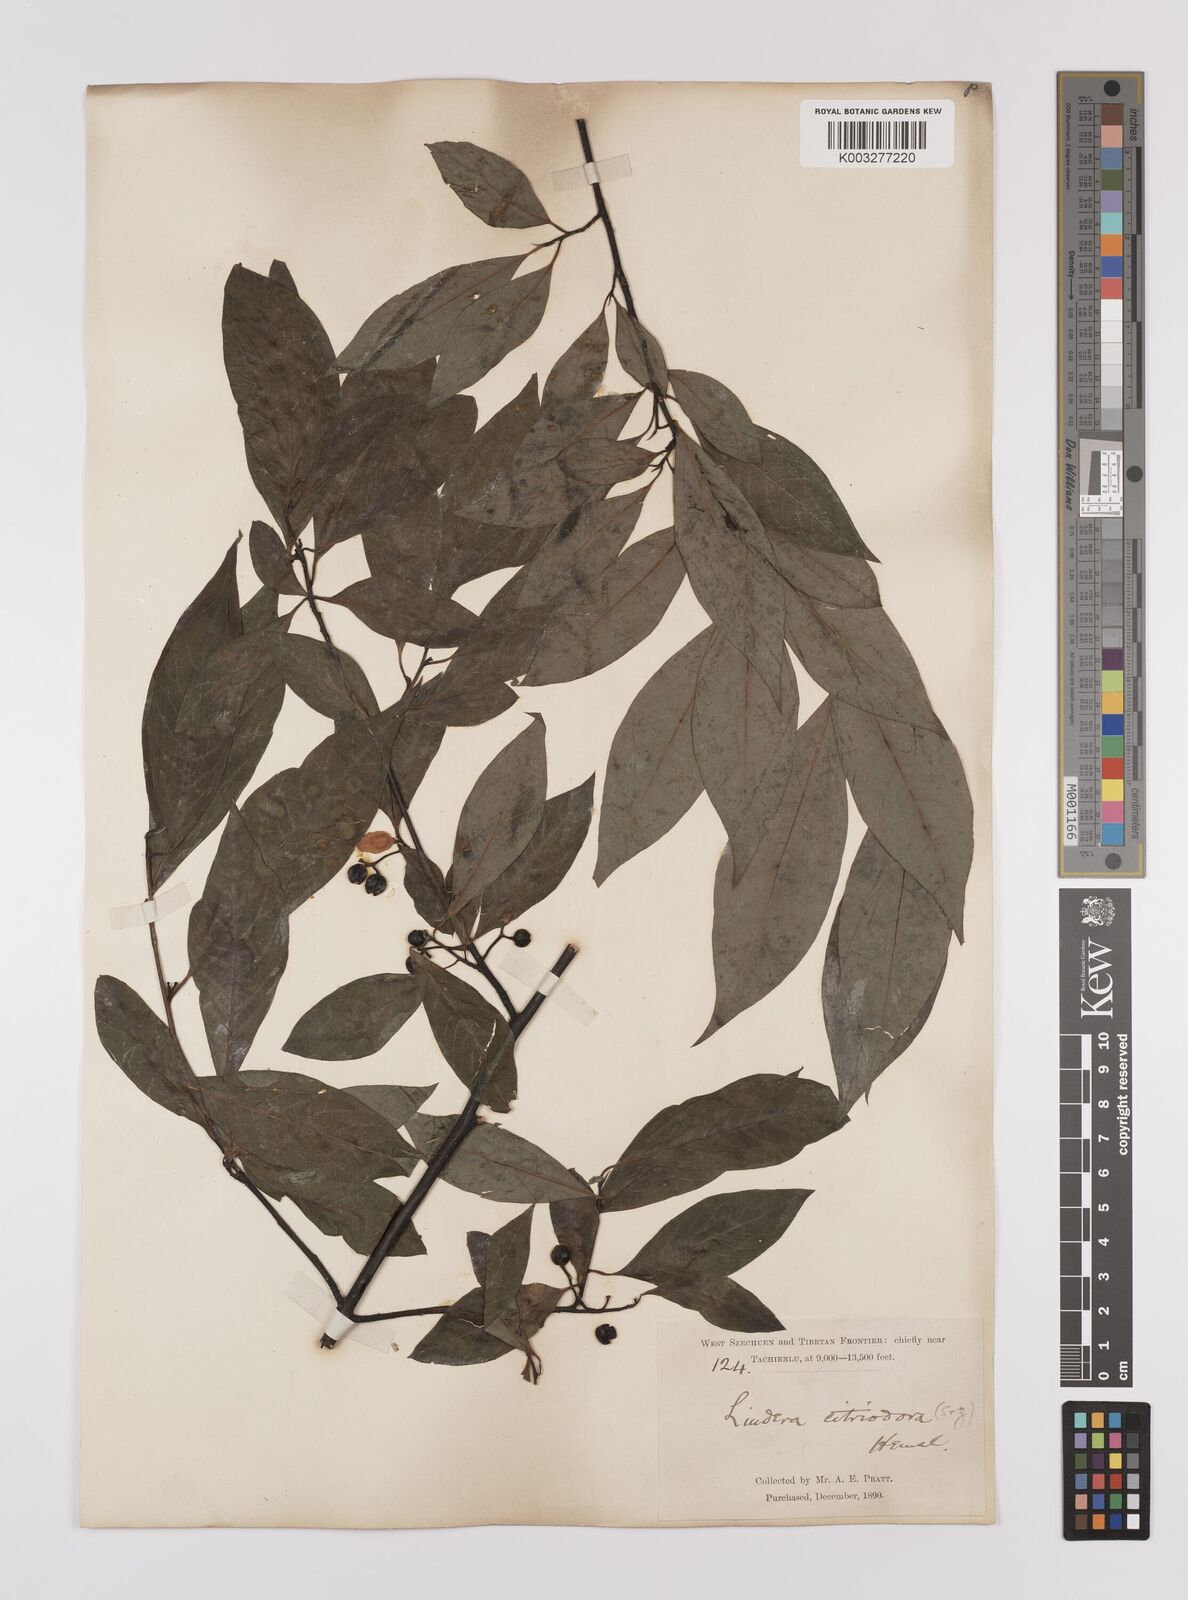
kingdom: Plantae
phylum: Tracheophyta
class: Magnoliopsida
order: Laurales
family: Lauraceae
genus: Litsea
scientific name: Litsea cubeba
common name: Mountain-pepper
